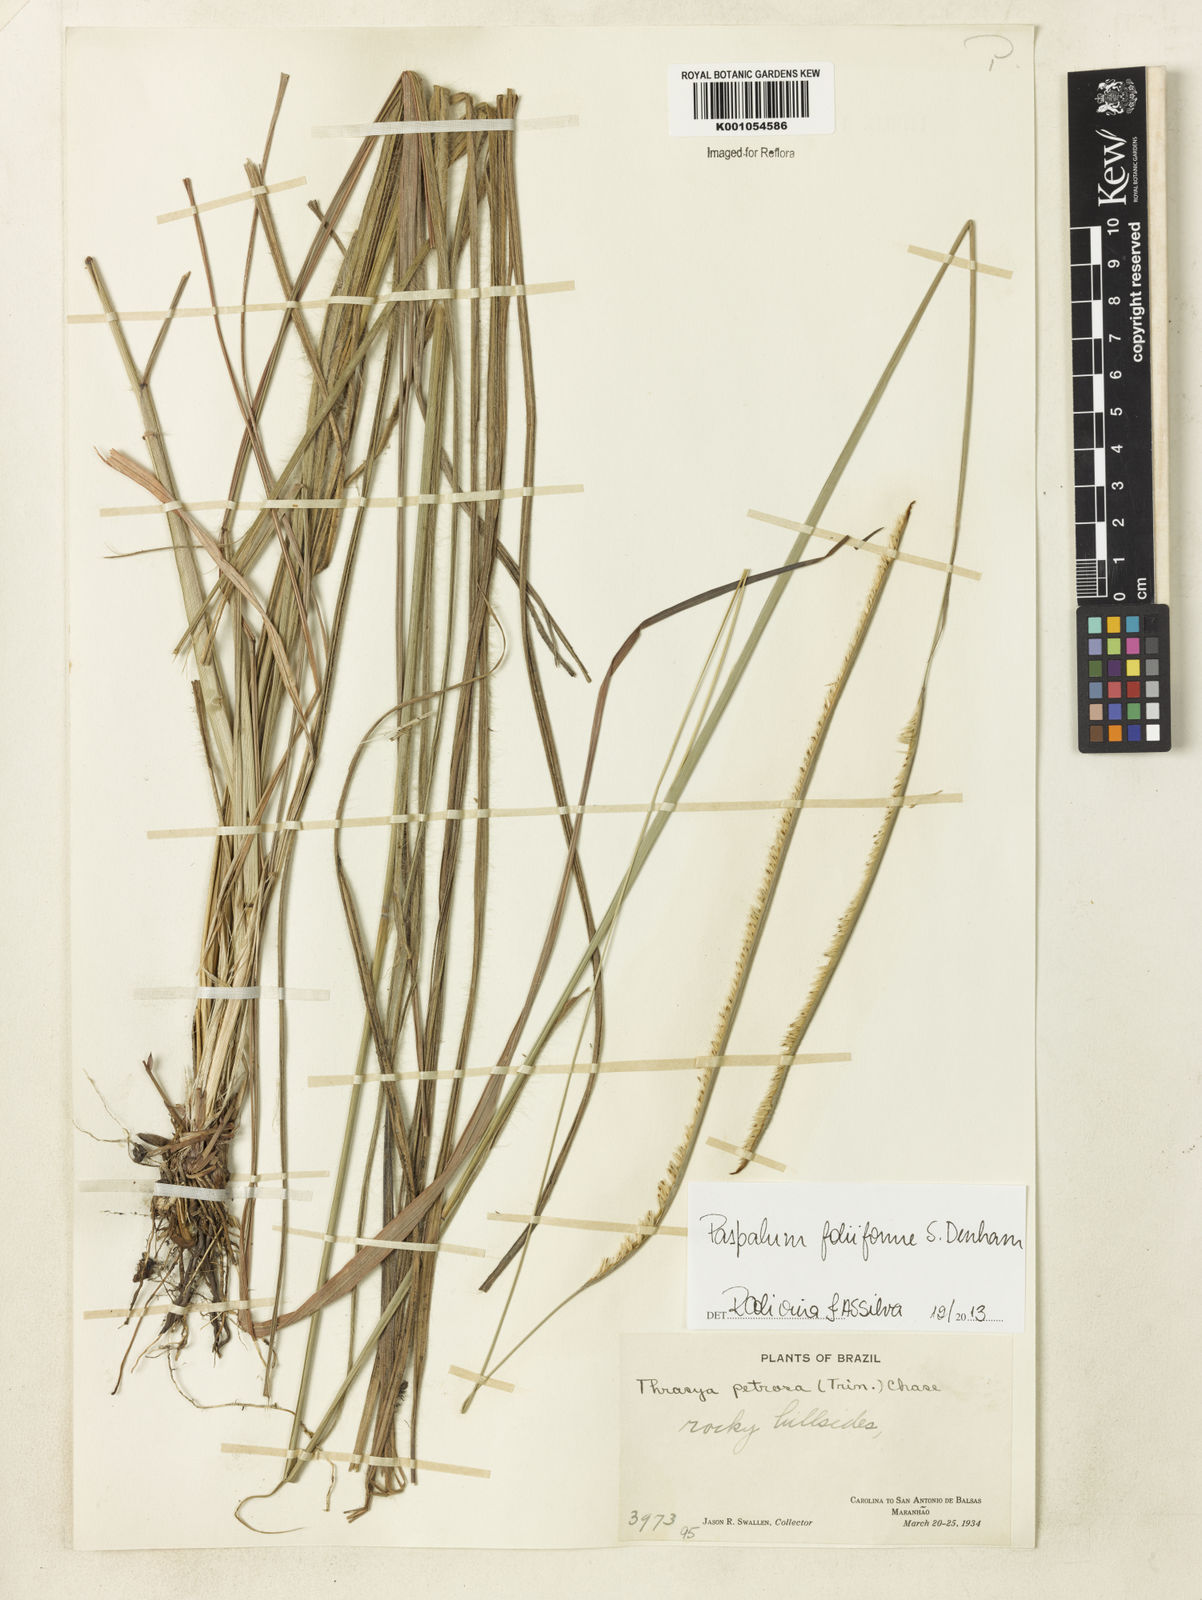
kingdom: Plantae
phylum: Tracheophyta
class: Liliopsida
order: Poales
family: Poaceae
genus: Paspalum
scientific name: Paspalum foliiforme
